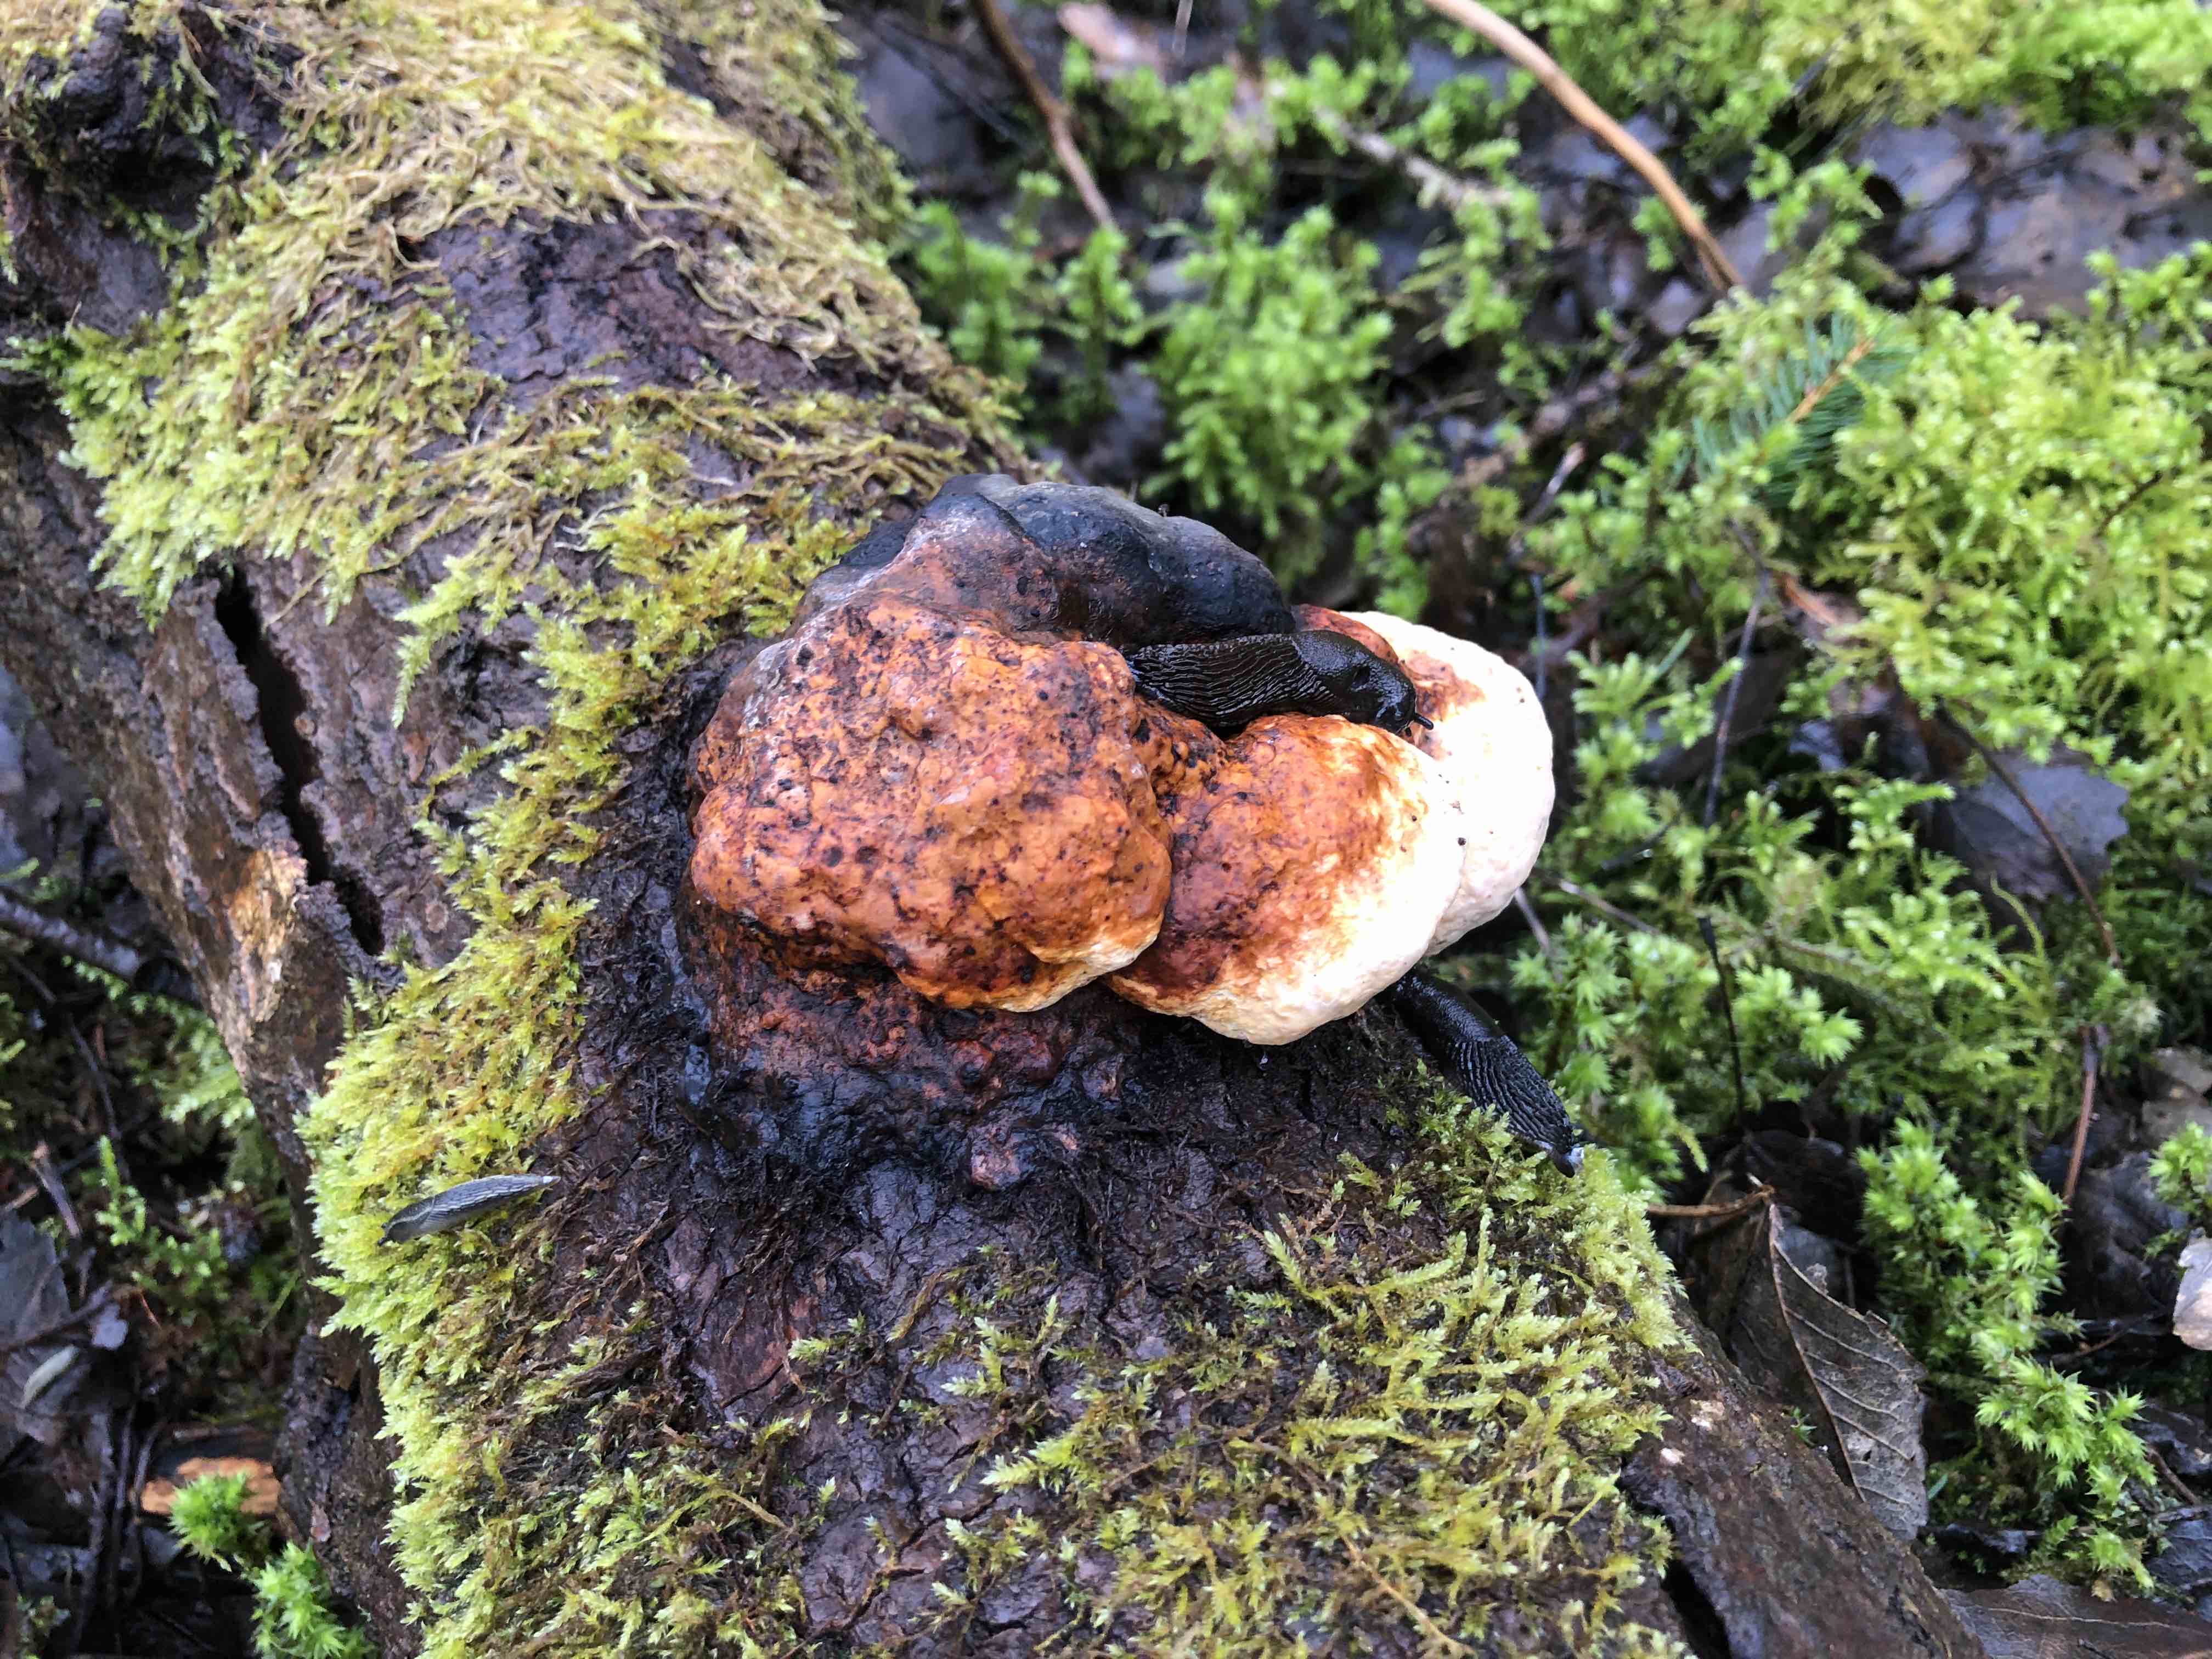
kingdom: Fungi
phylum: Basidiomycota
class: Agaricomycetes
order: Polyporales
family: Fomitopsidaceae
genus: Fomitopsis
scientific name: Fomitopsis pinicola
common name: randbæltet hovporesvamp
